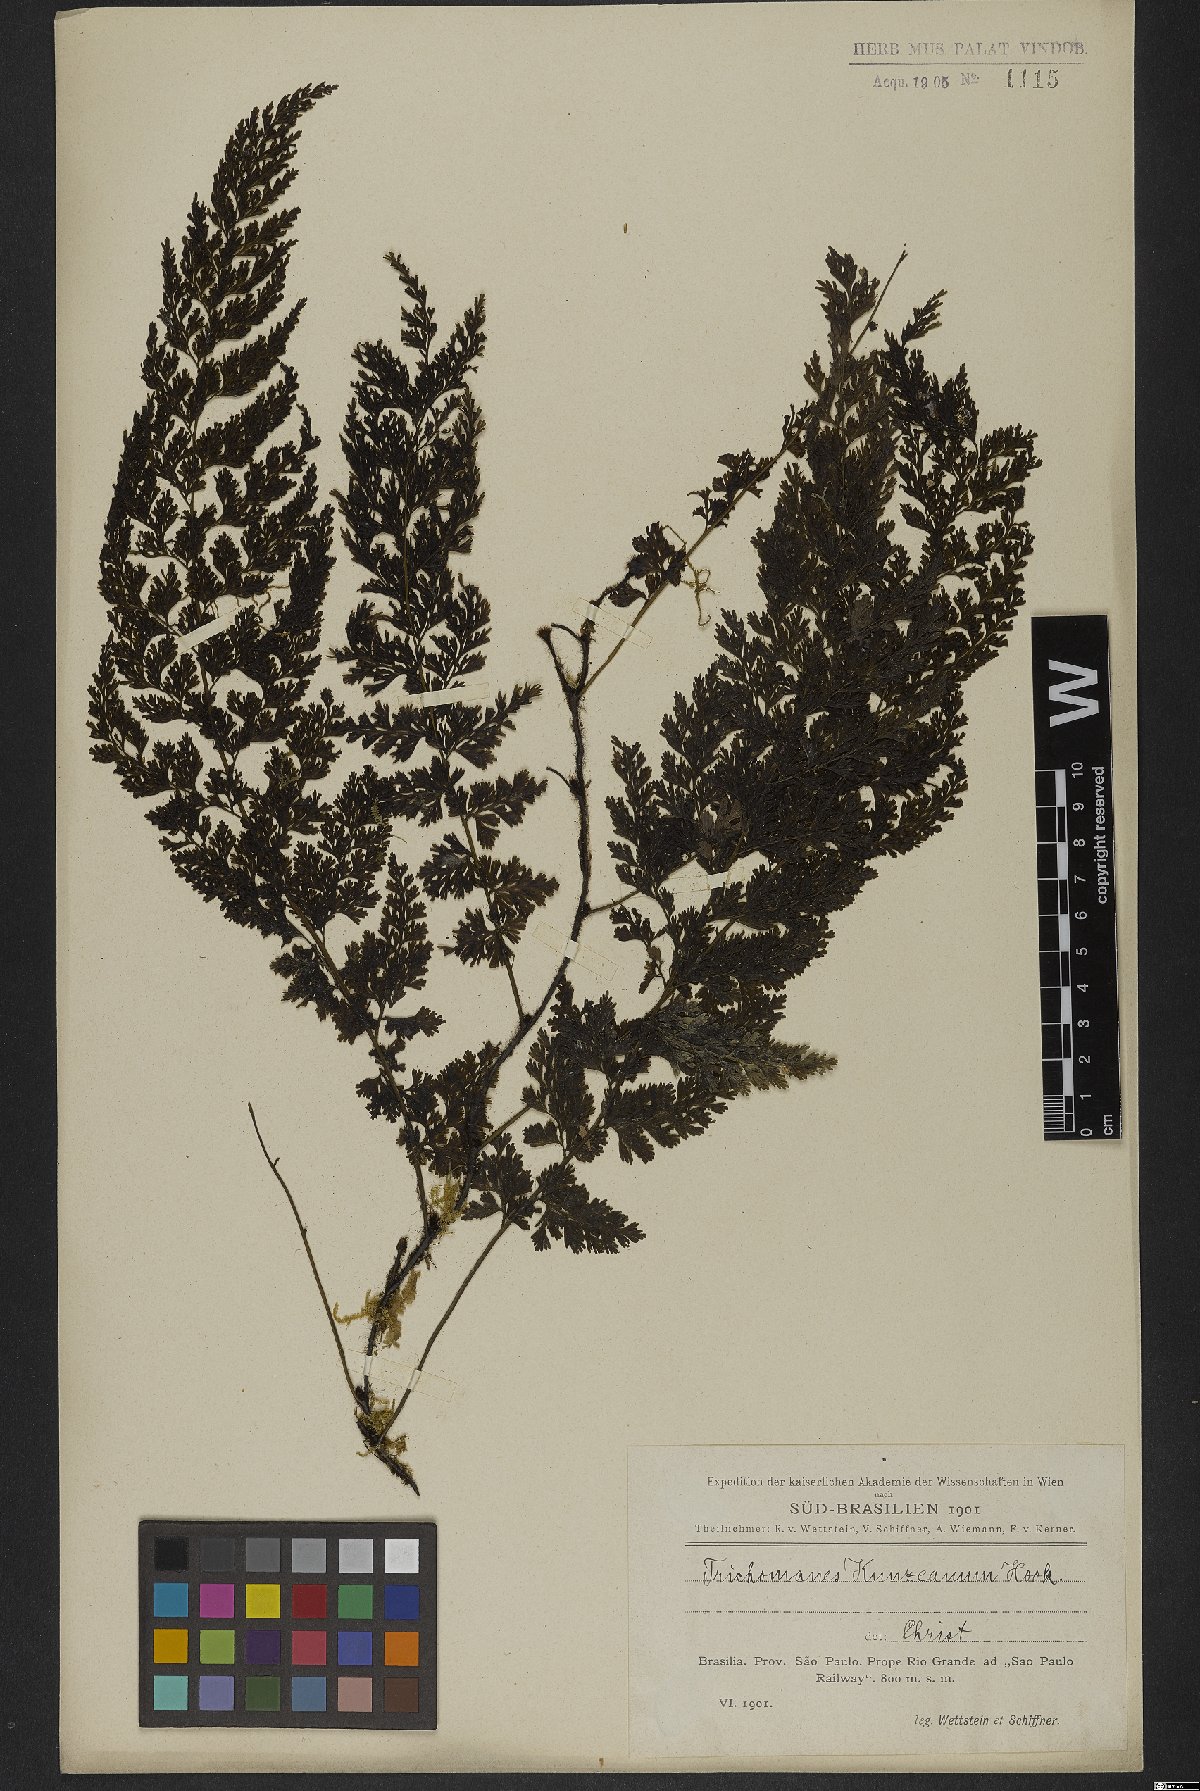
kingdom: Plantae
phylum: Tracheophyta
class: Polypodiopsida
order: Hymenophyllales
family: Hymenophyllaceae
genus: Vandenboschia
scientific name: Vandenboschia radicans
